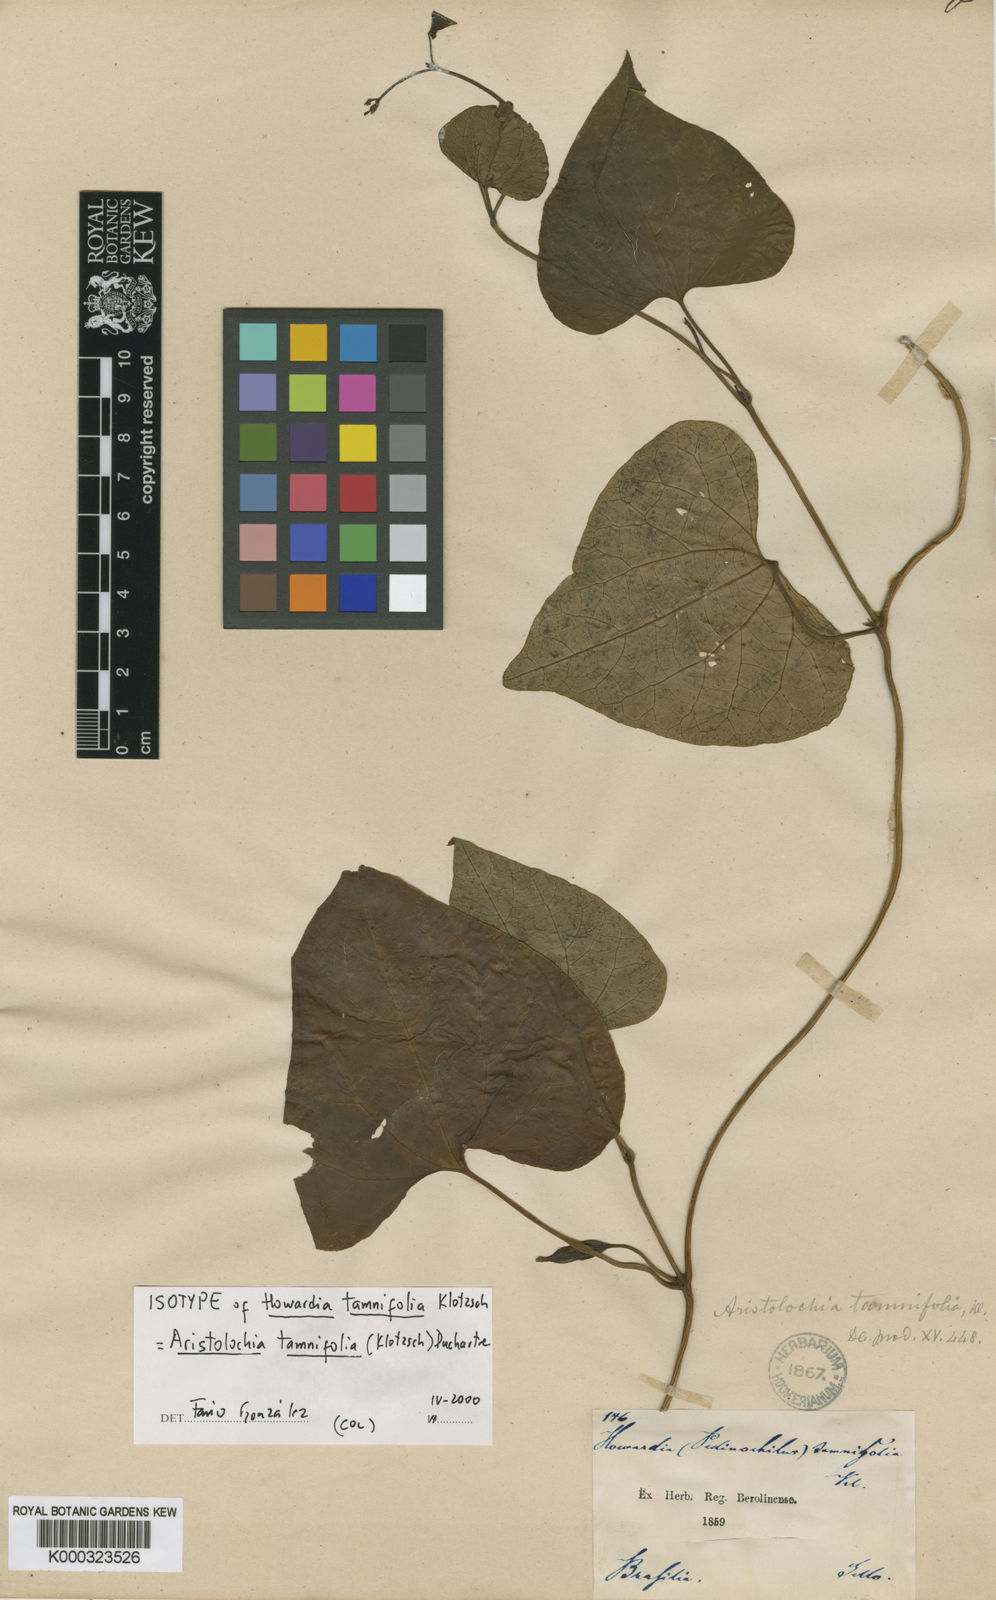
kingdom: Plantae
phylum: Tracheophyta
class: Magnoliopsida
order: Piperales
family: Aristolochiaceae
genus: Aristolochia
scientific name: Aristolochia tamnifolia
